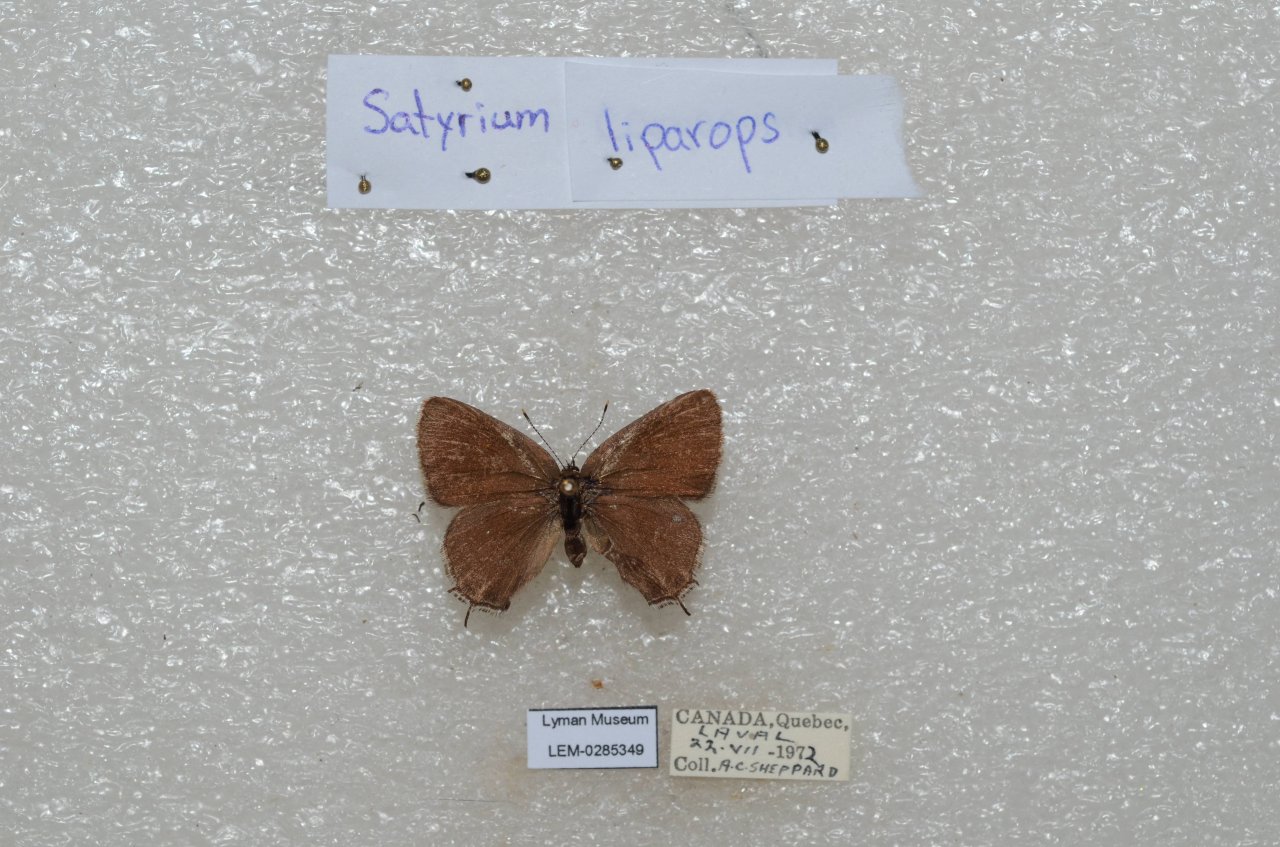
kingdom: Animalia
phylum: Arthropoda
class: Insecta
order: Lepidoptera
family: Lycaenidae
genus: Satyrium
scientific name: Satyrium liparops
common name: Striped Hairstreak
